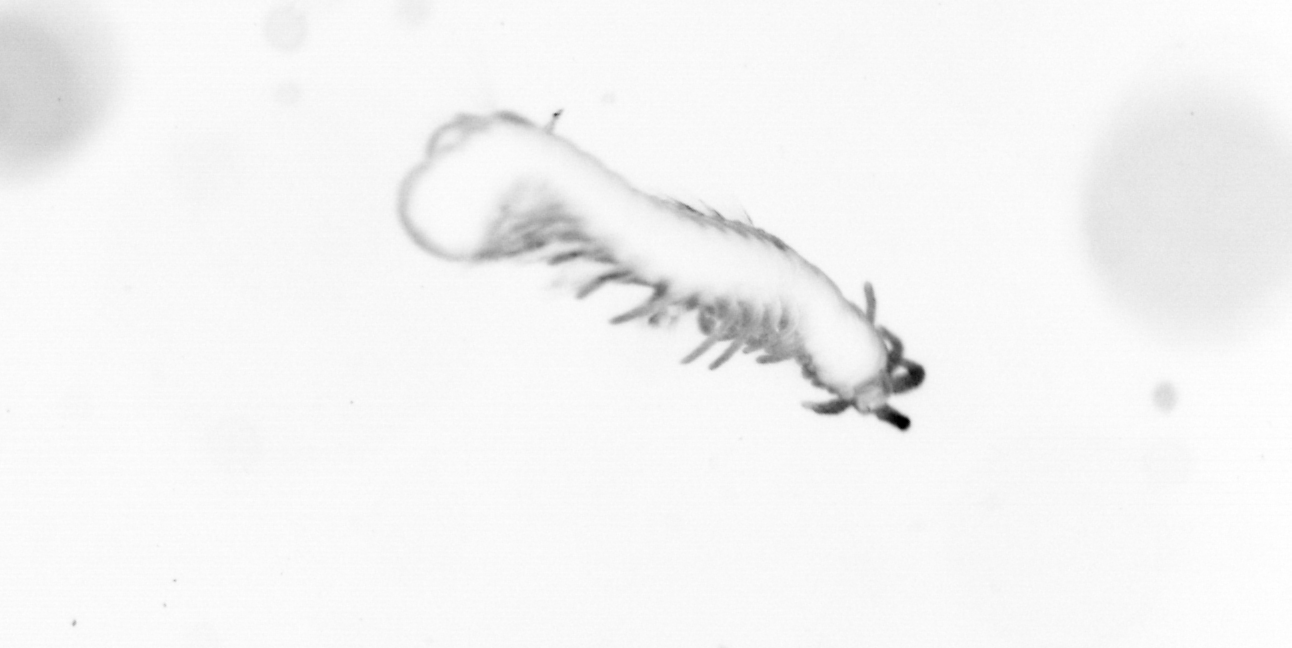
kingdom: Animalia
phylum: Annelida
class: Polychaeta
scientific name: Polychaeta
